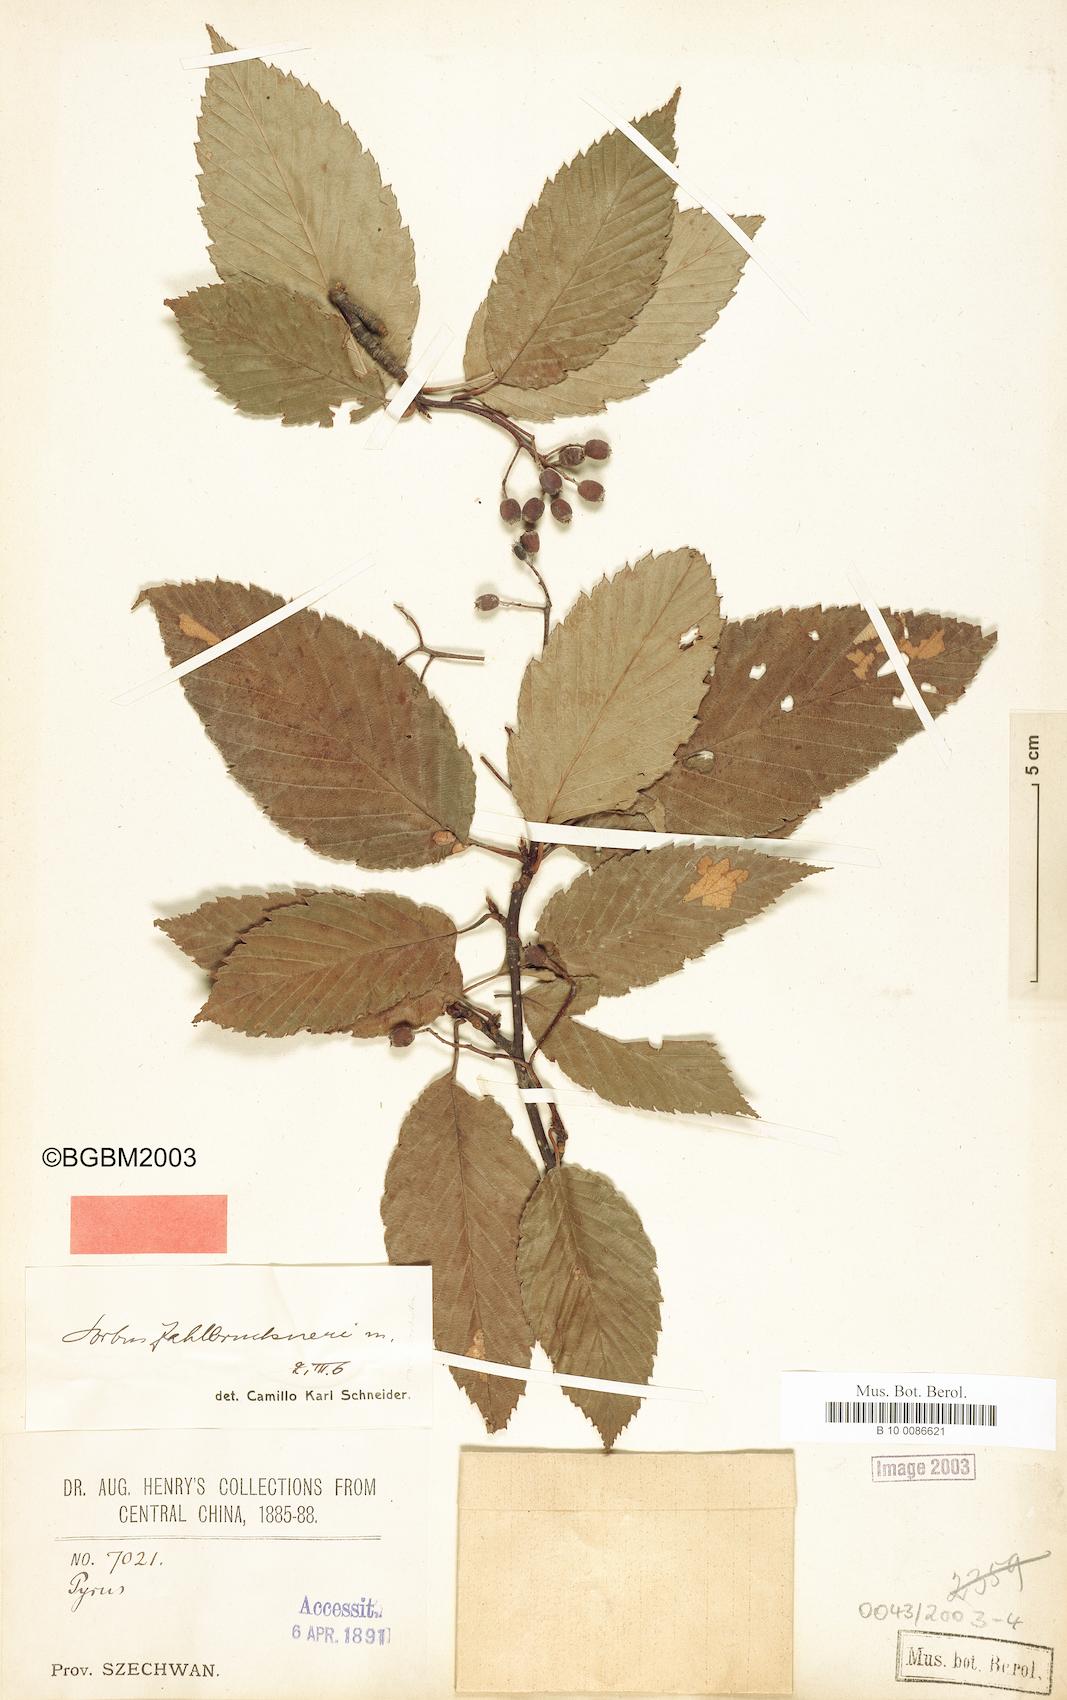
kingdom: Plantae
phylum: Tracheophyta
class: Magnoliopsida
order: Rosales
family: Rosaceae
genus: Sorbus
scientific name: Sorbus zahlbruckneri
